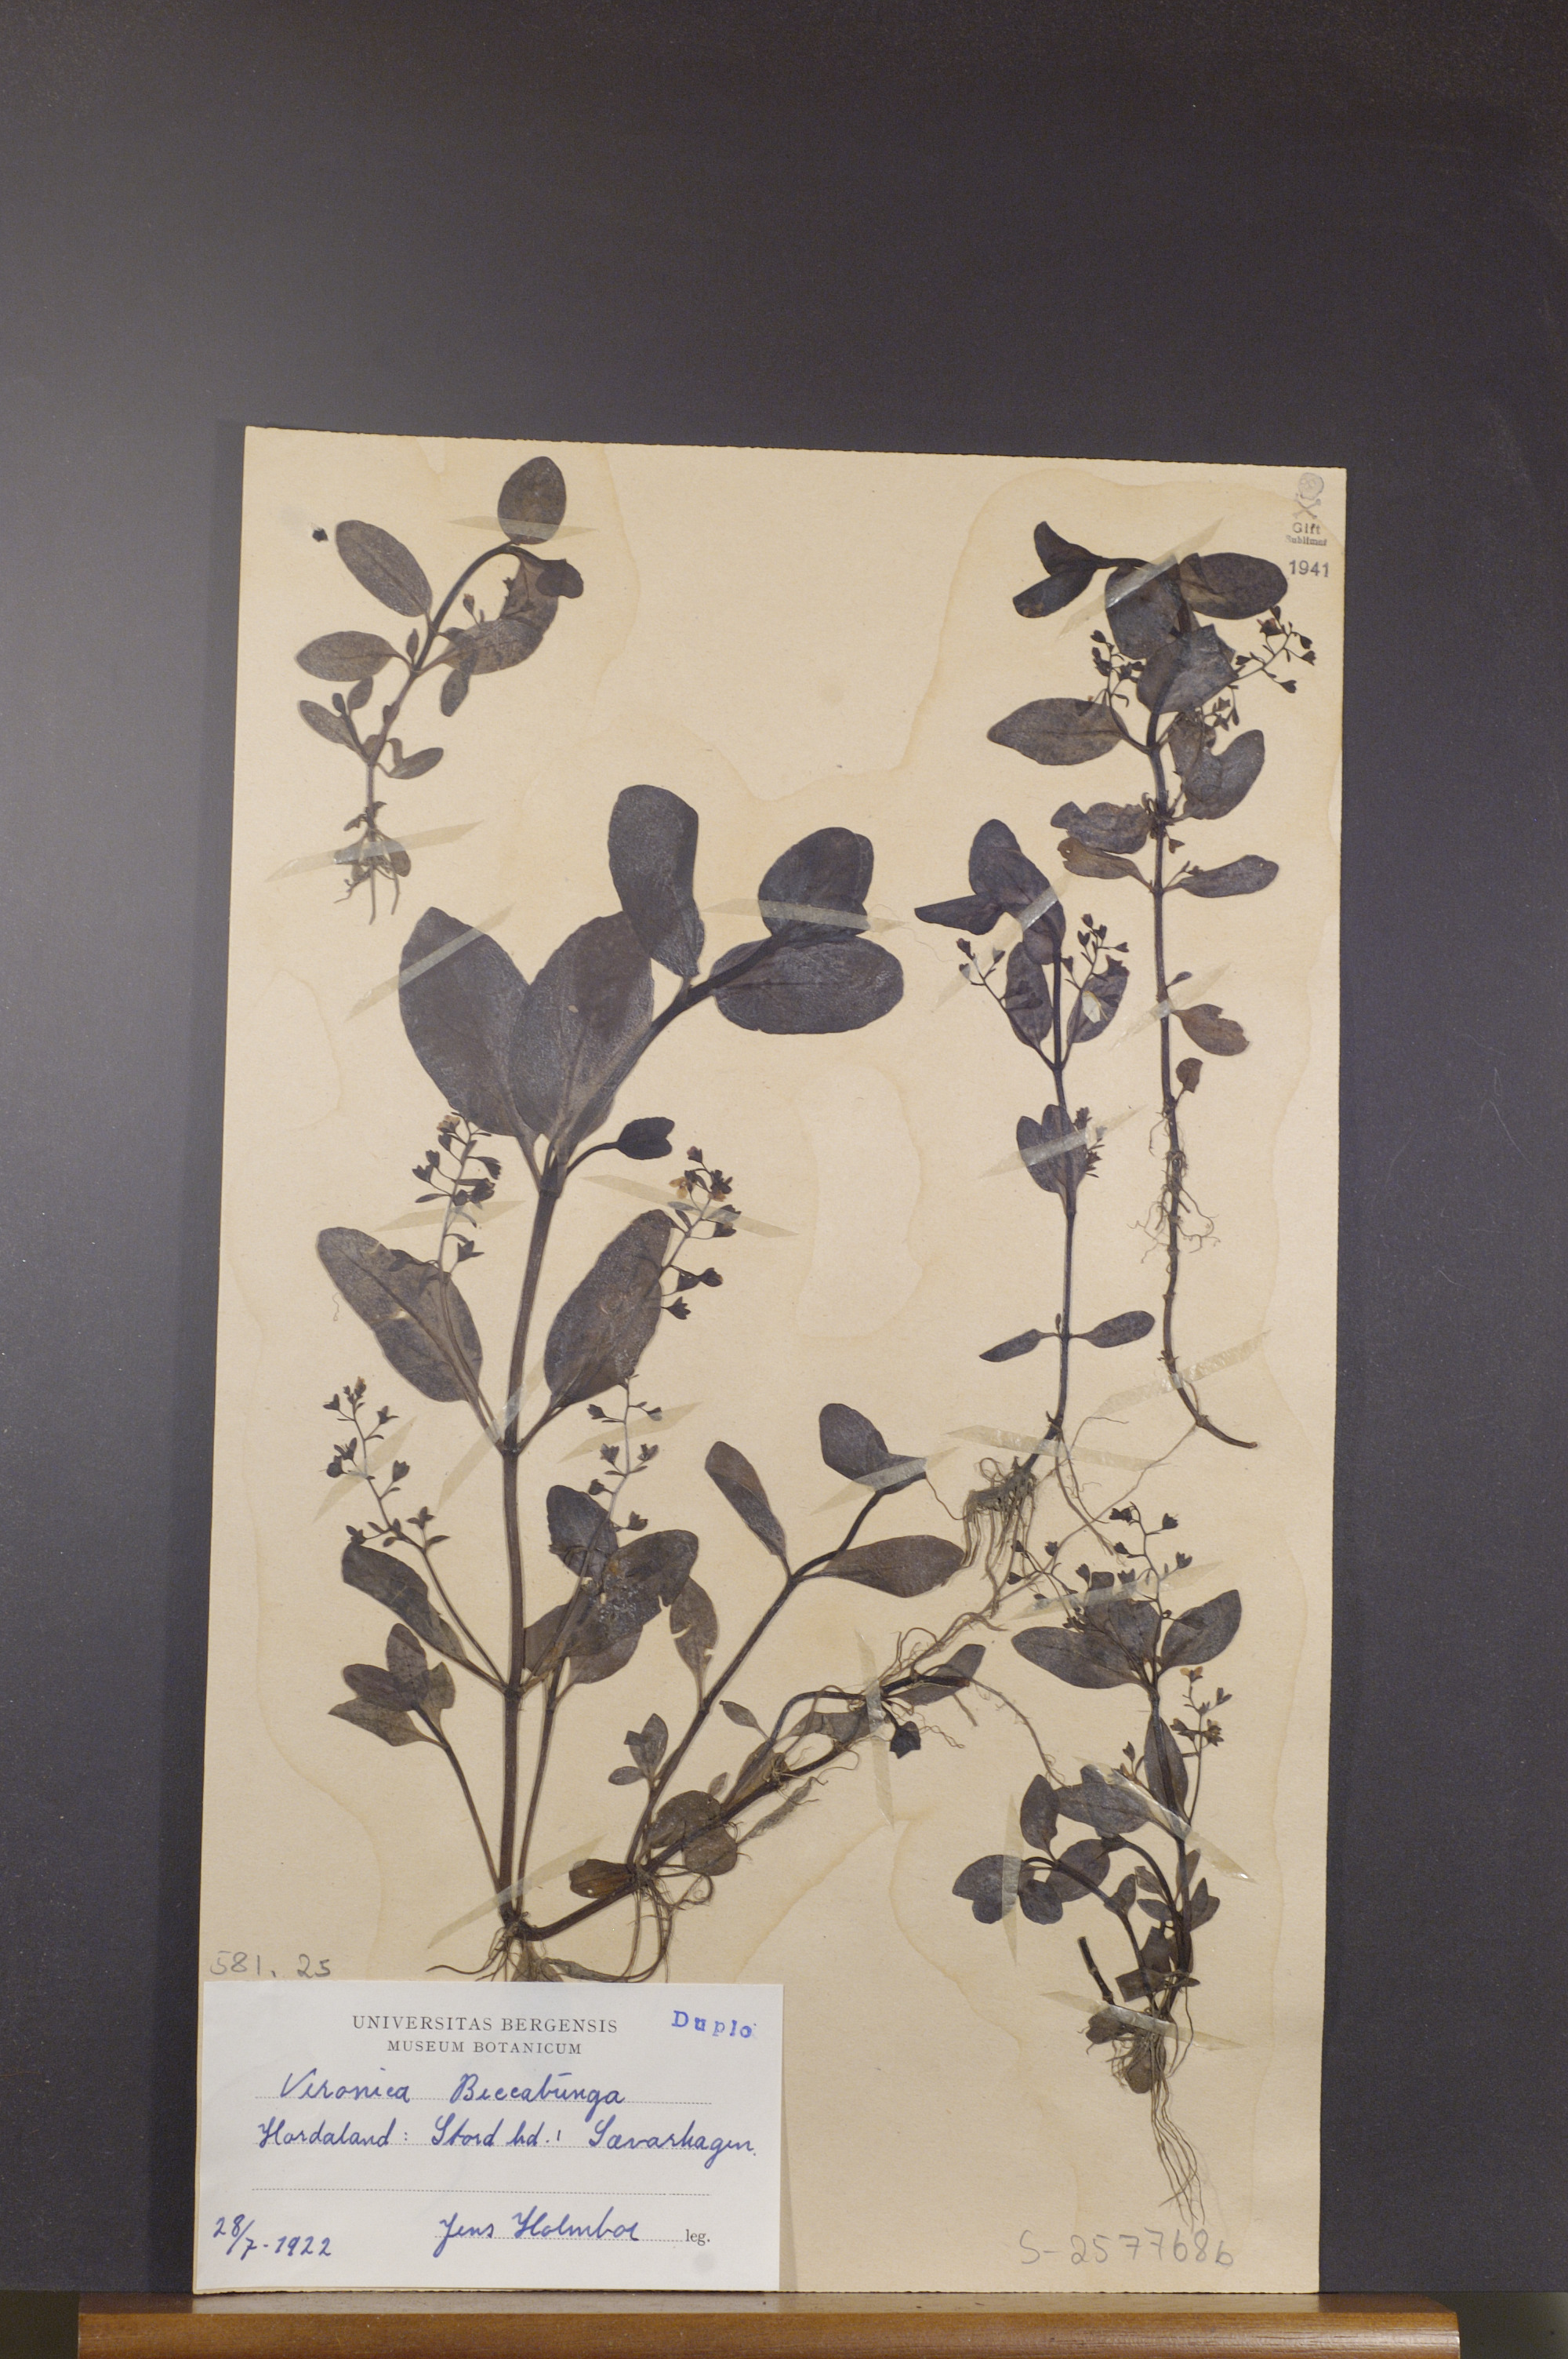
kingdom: Plantae
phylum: Tracheophyta
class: Magnoliopsida
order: Lamiales
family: Plantaginaceae
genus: Veronica
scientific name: Veronica beccabunga
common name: Brooklime
